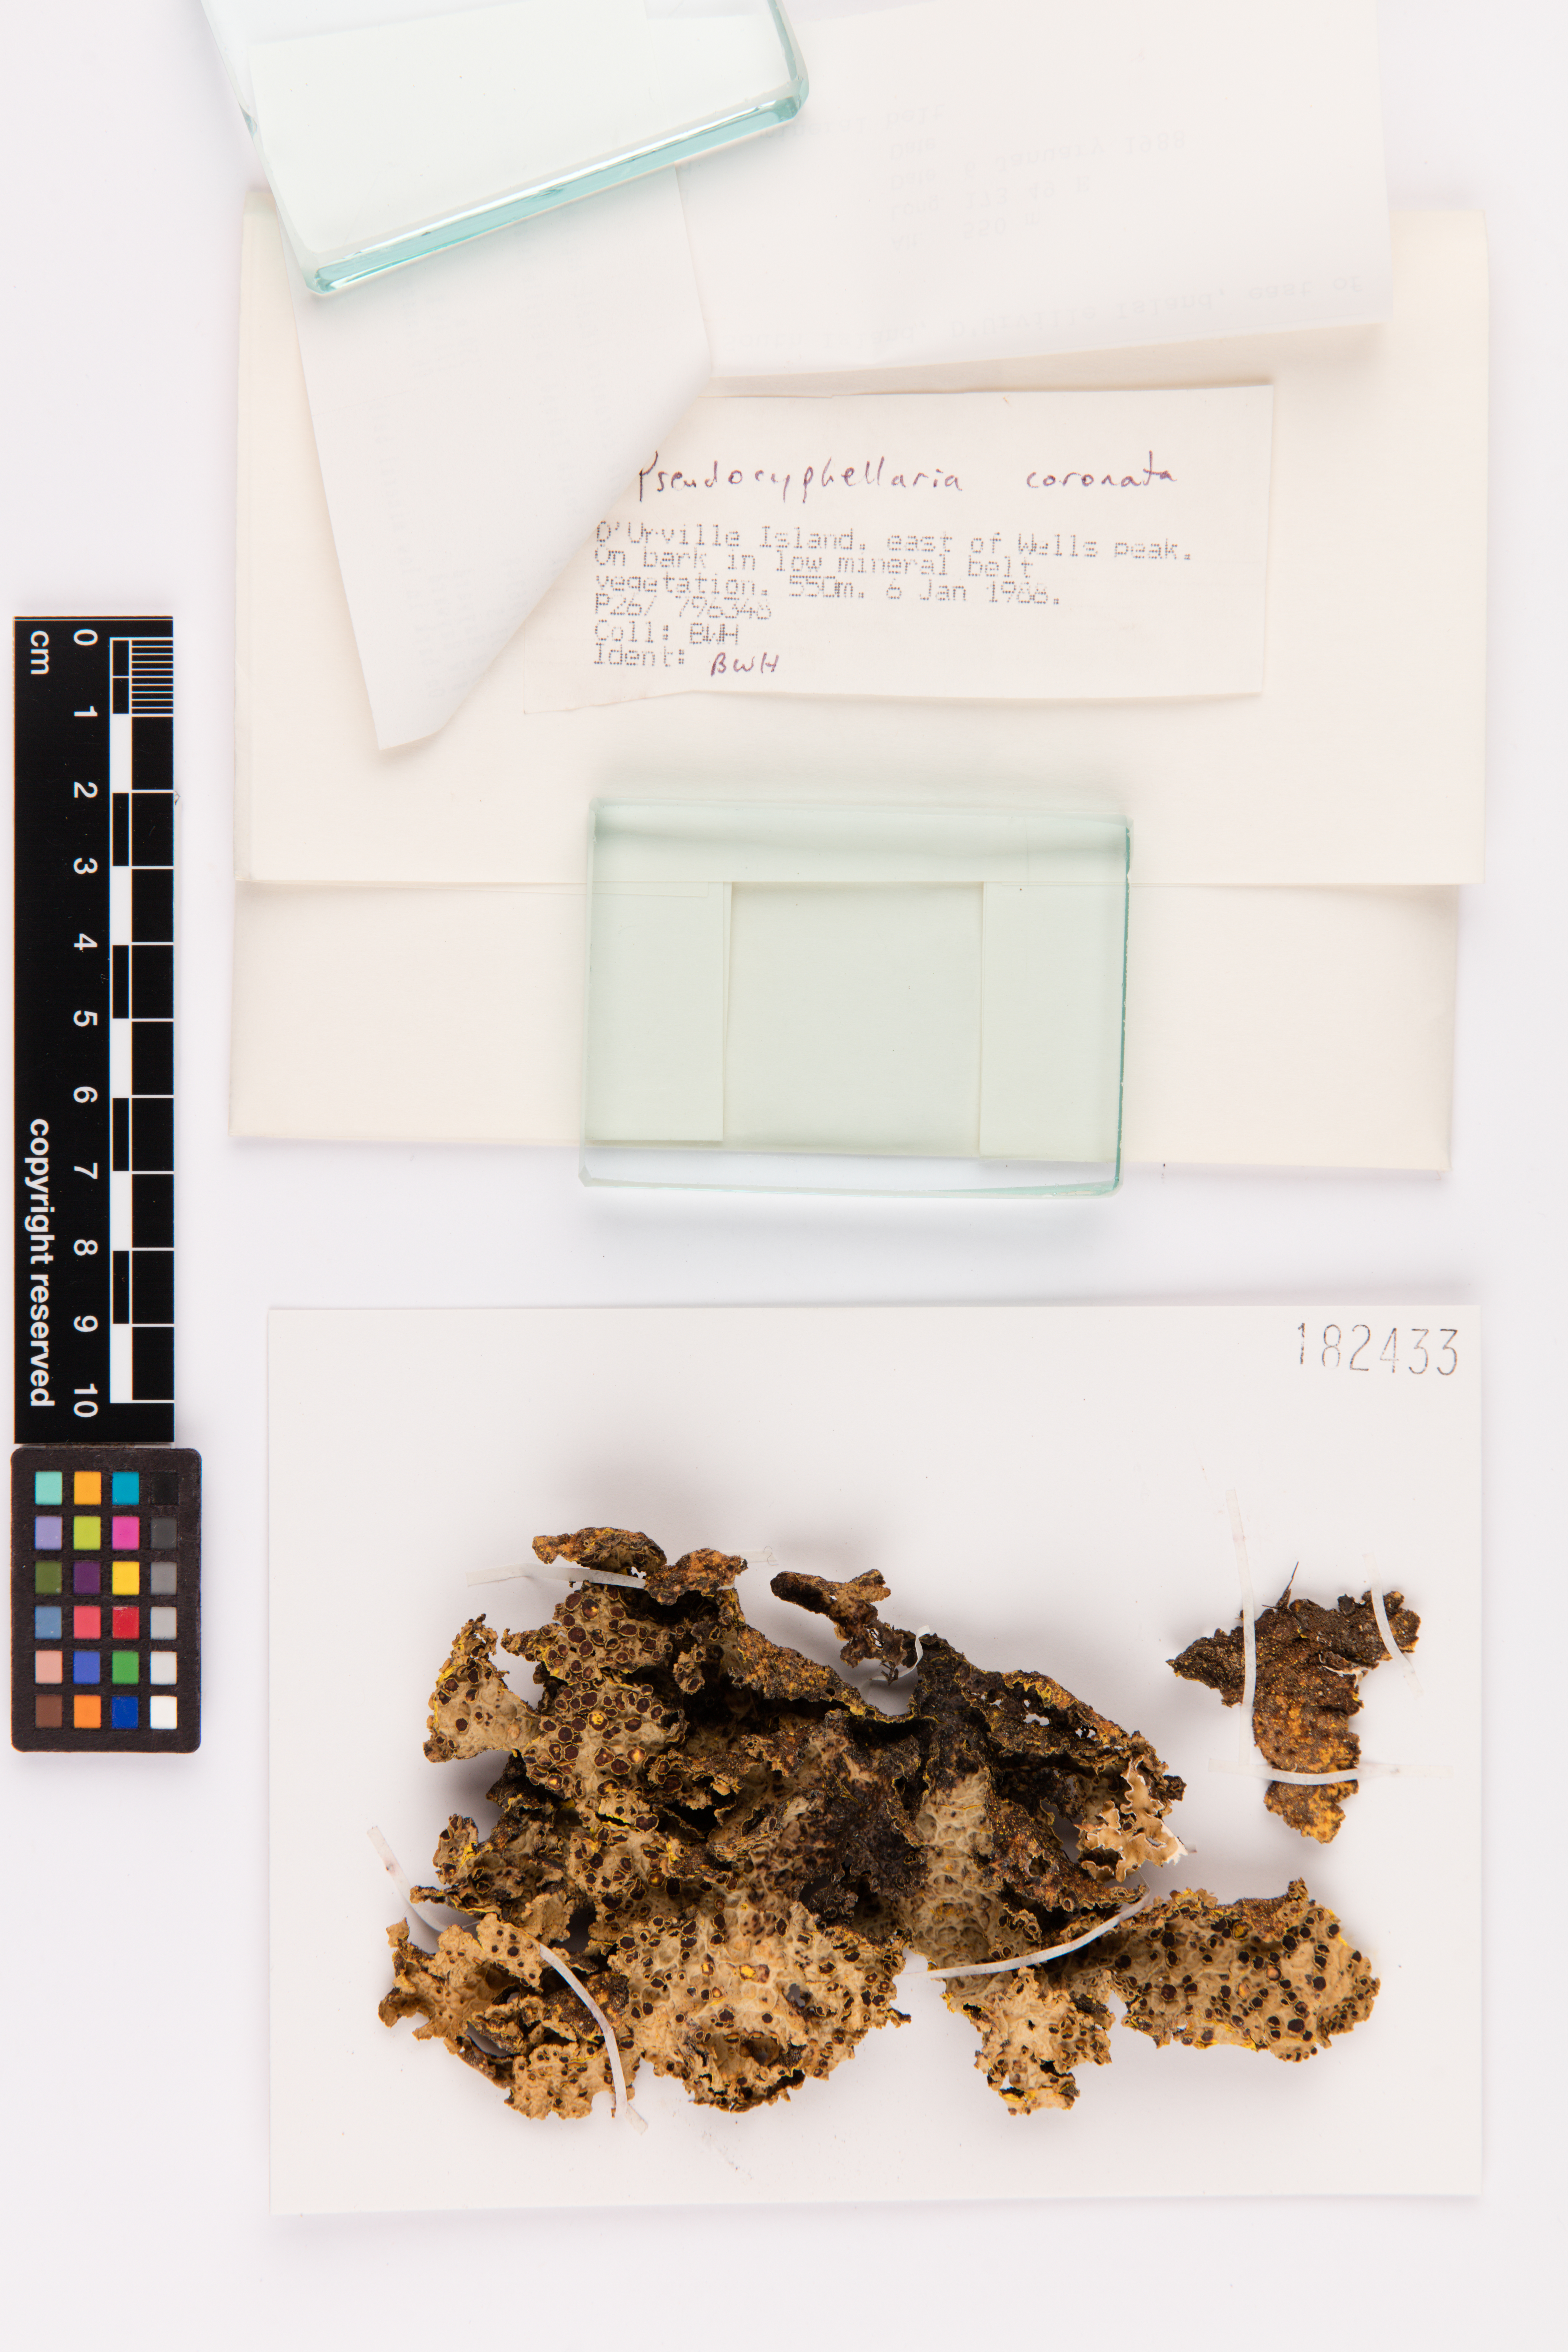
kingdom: Fungi
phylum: Ascomycota
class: Lecanoromycetes
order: Peltigerales
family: Lobariaceae
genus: Yarrumia
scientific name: Yarrumia coronata
